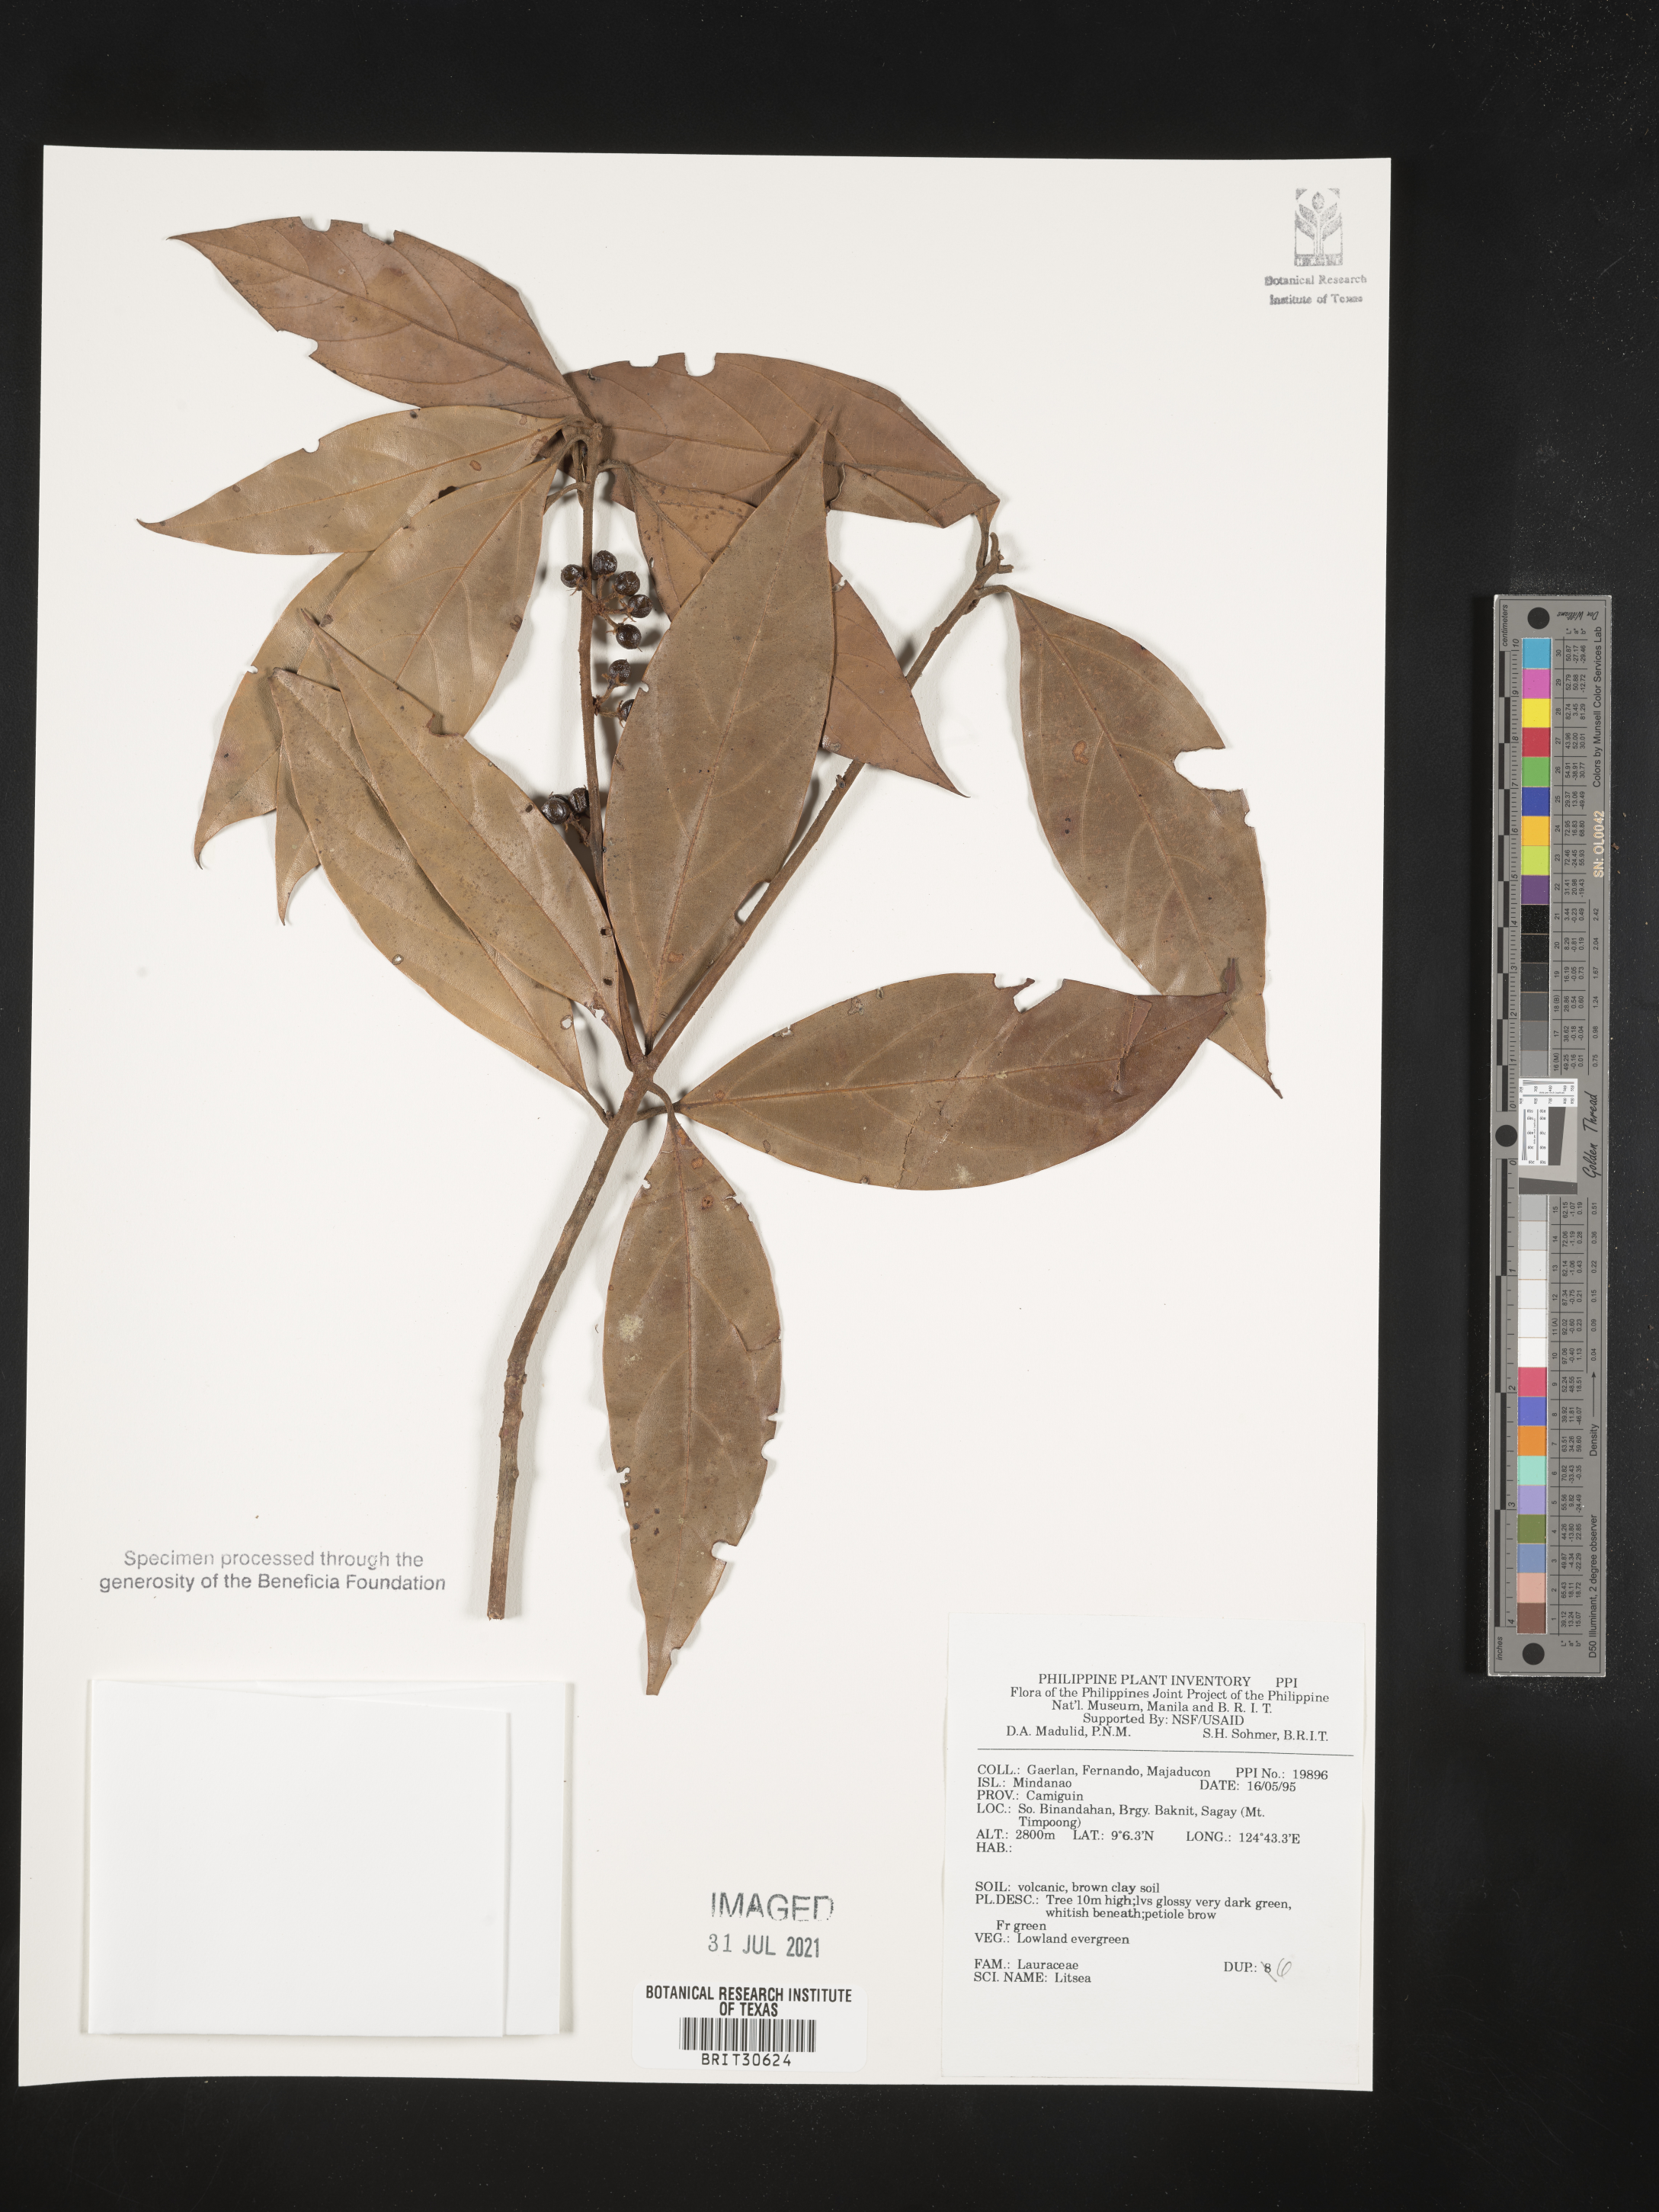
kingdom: Plantae
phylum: Tracheophyta
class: Magnoliopsida
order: Laurales
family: Lauraceae
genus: Litsea
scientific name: Litsea
